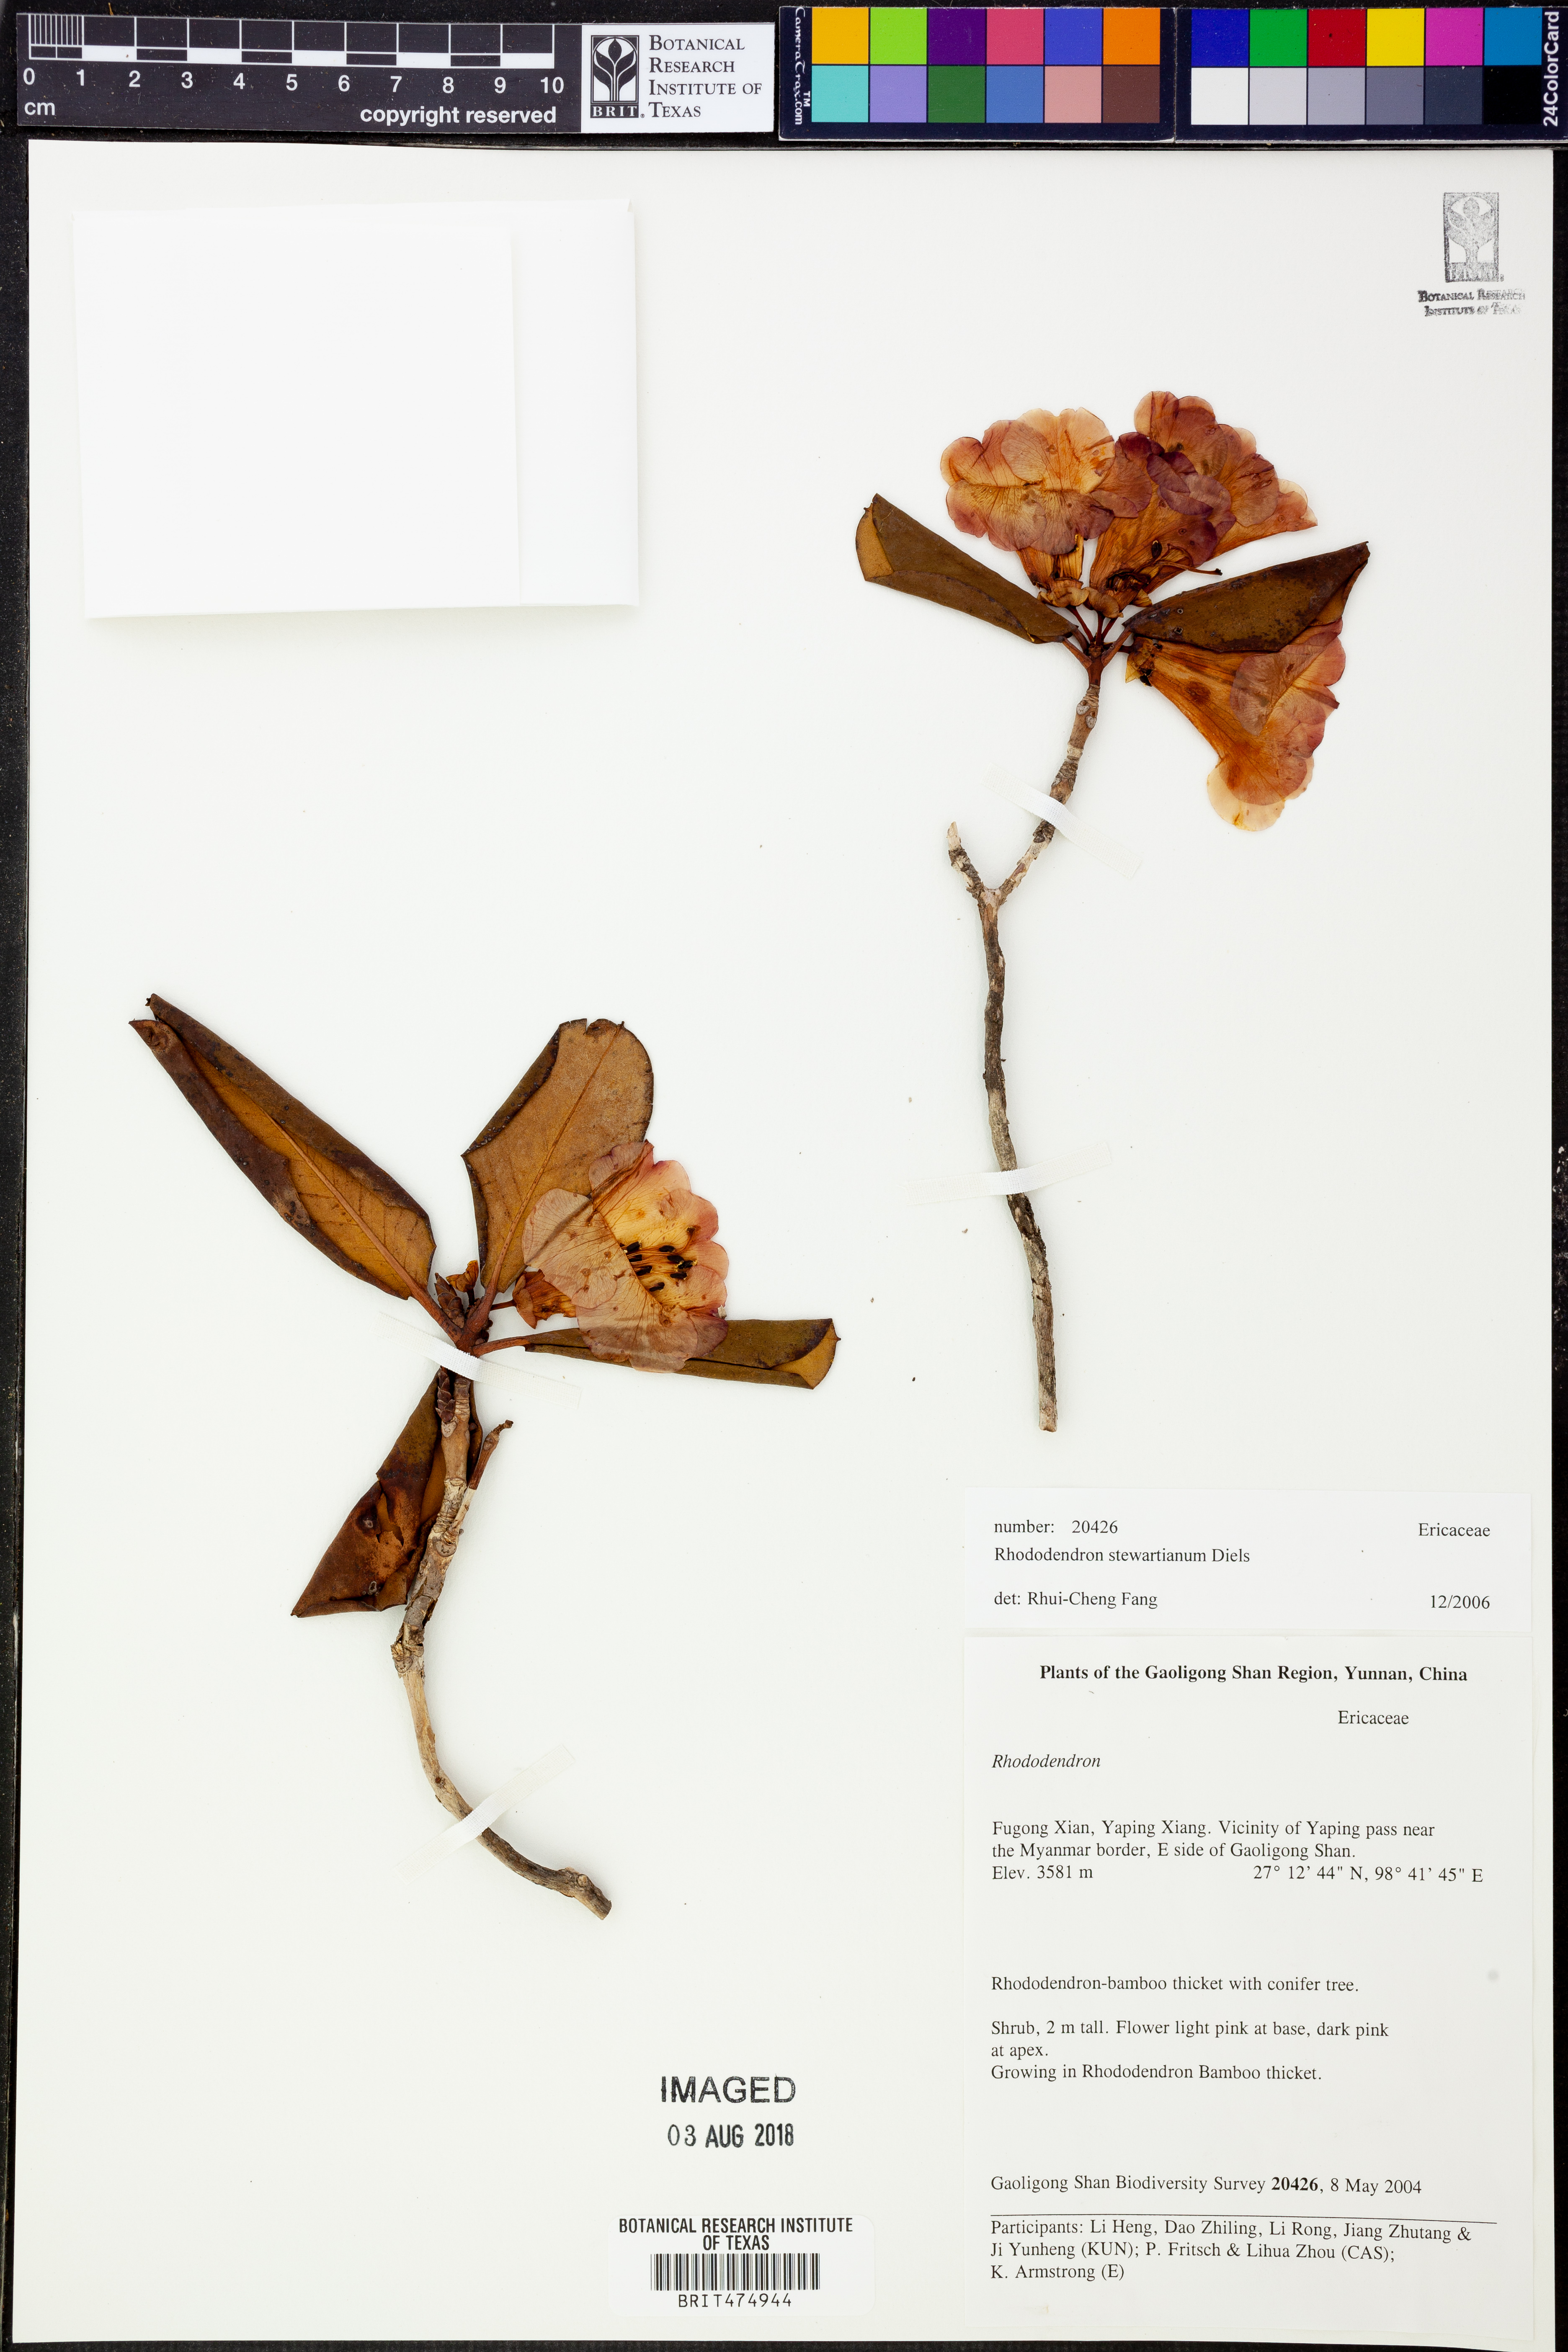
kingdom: Plantae
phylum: Tracheophyta
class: Magnoliopsida
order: Ericales
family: Ericaceae
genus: Rhododendron
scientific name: Rhododendron stewartianum
